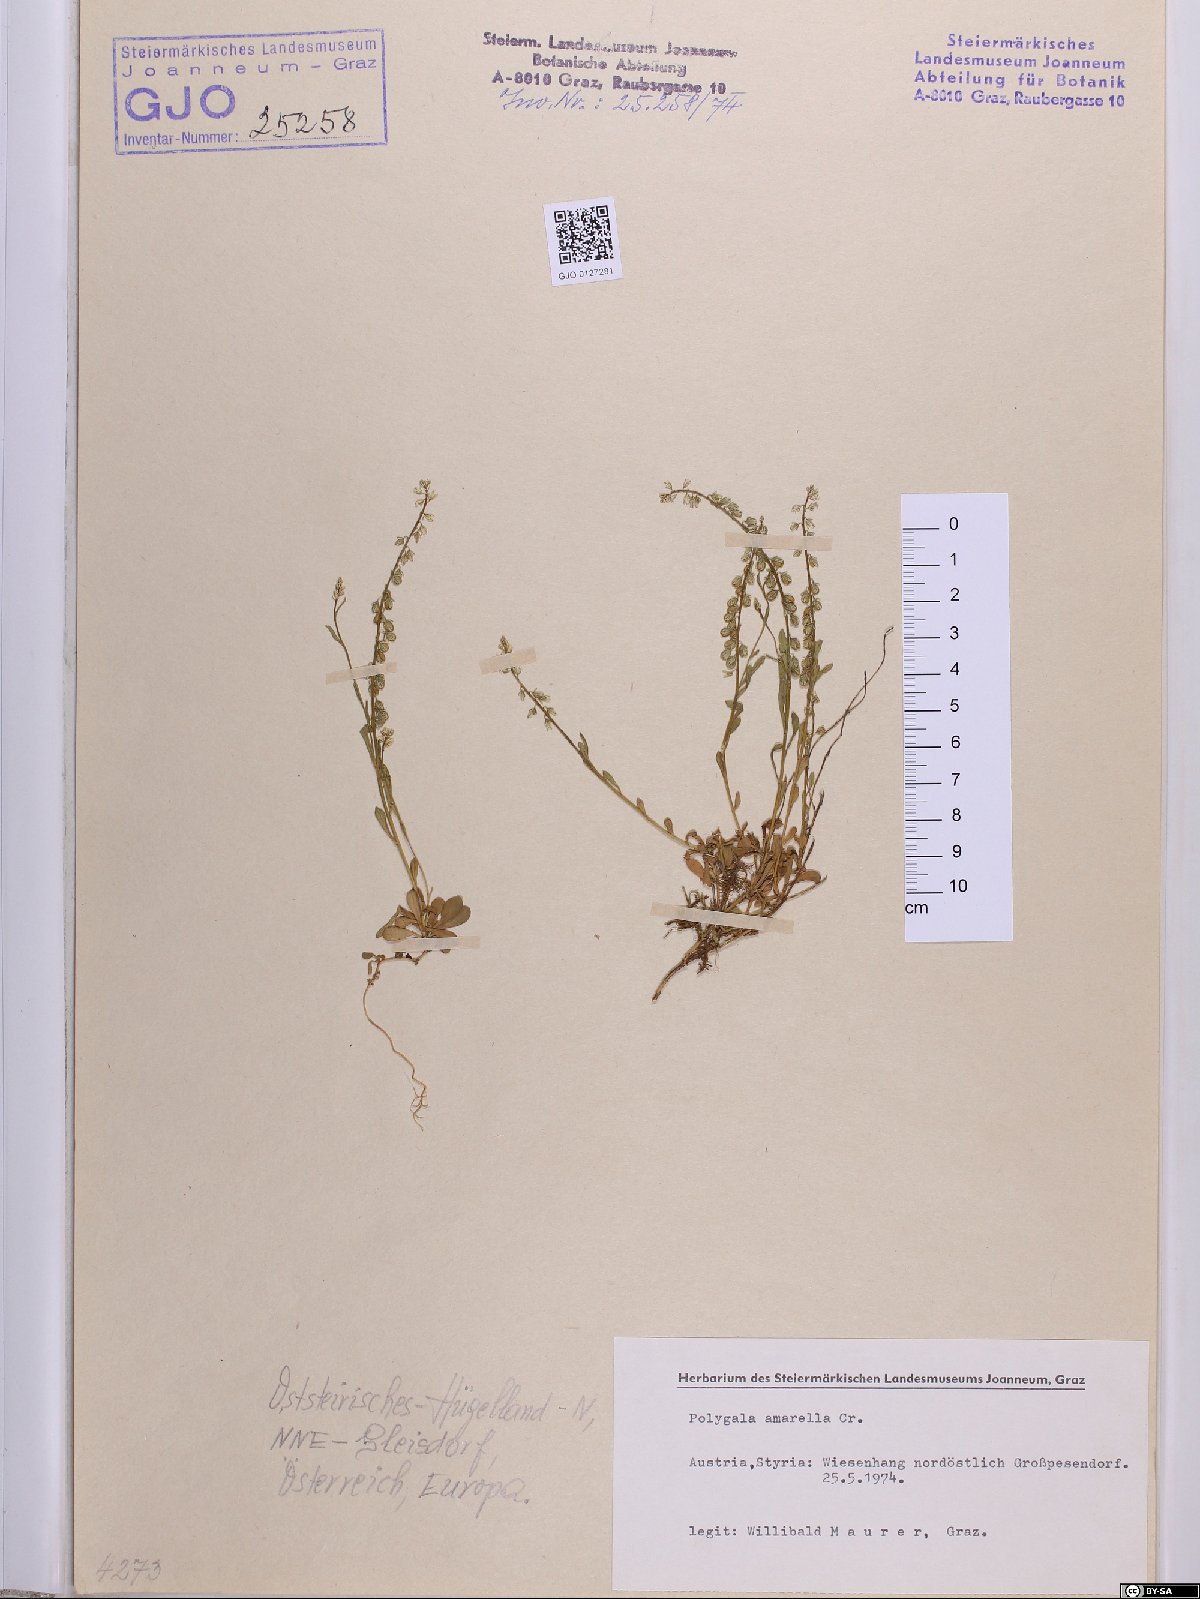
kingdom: Plantae
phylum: Tracheophyta
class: Magnoliopsida
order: Fabales
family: Polygalaceae
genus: Polygala
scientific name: Polygala amarella
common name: Dwarf milkwort
